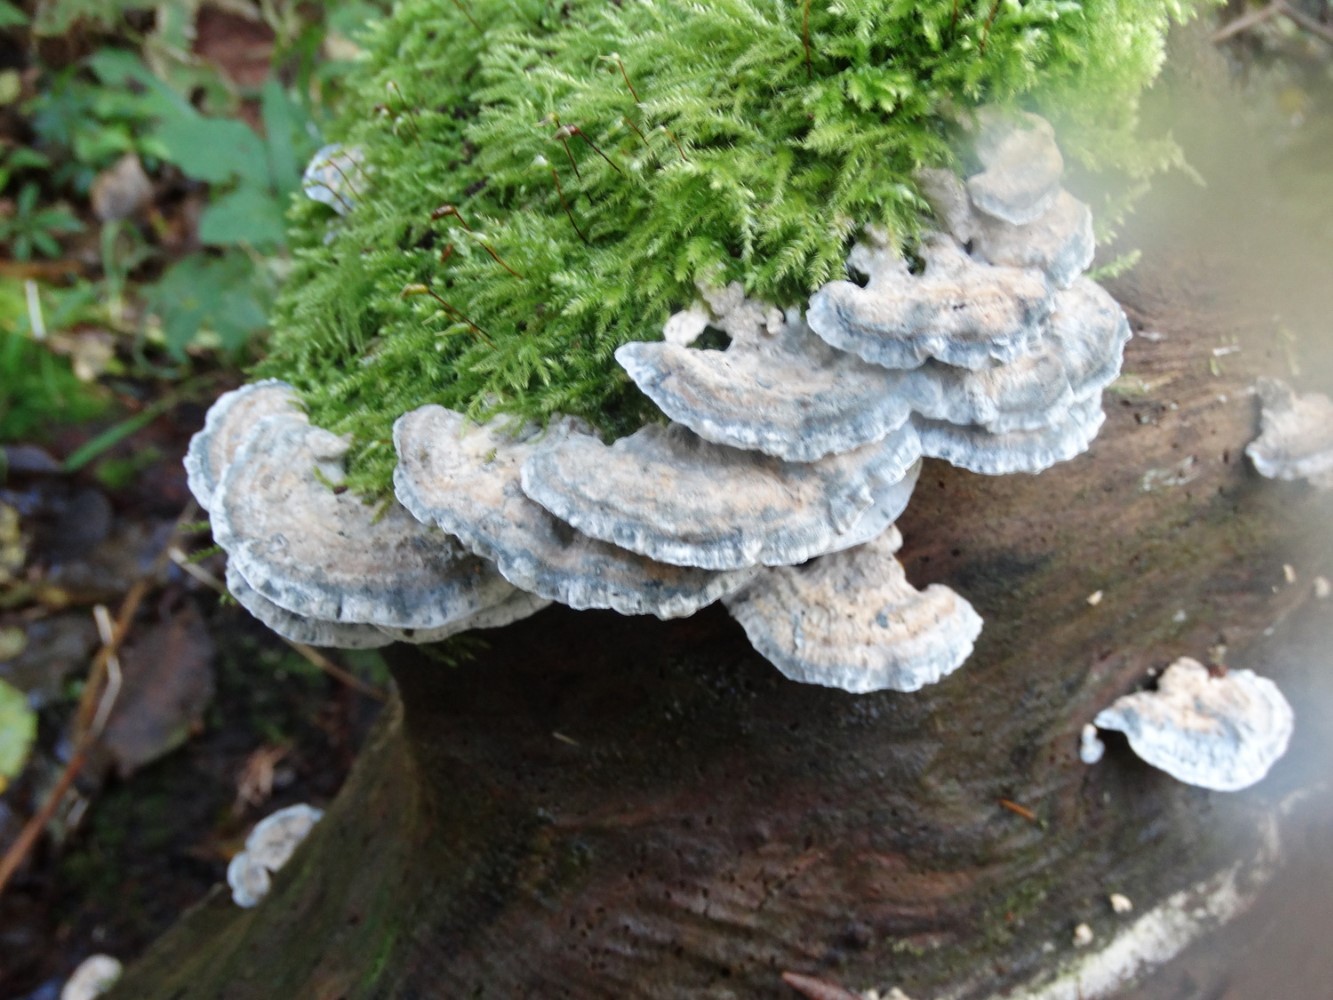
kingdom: Fungi
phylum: Basidiomycota
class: Agaricomycetes
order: Polyporales
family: Polyporaceae
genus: Cyanosporus
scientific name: Cyanosporus alni
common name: blegblå kødporesvamp
